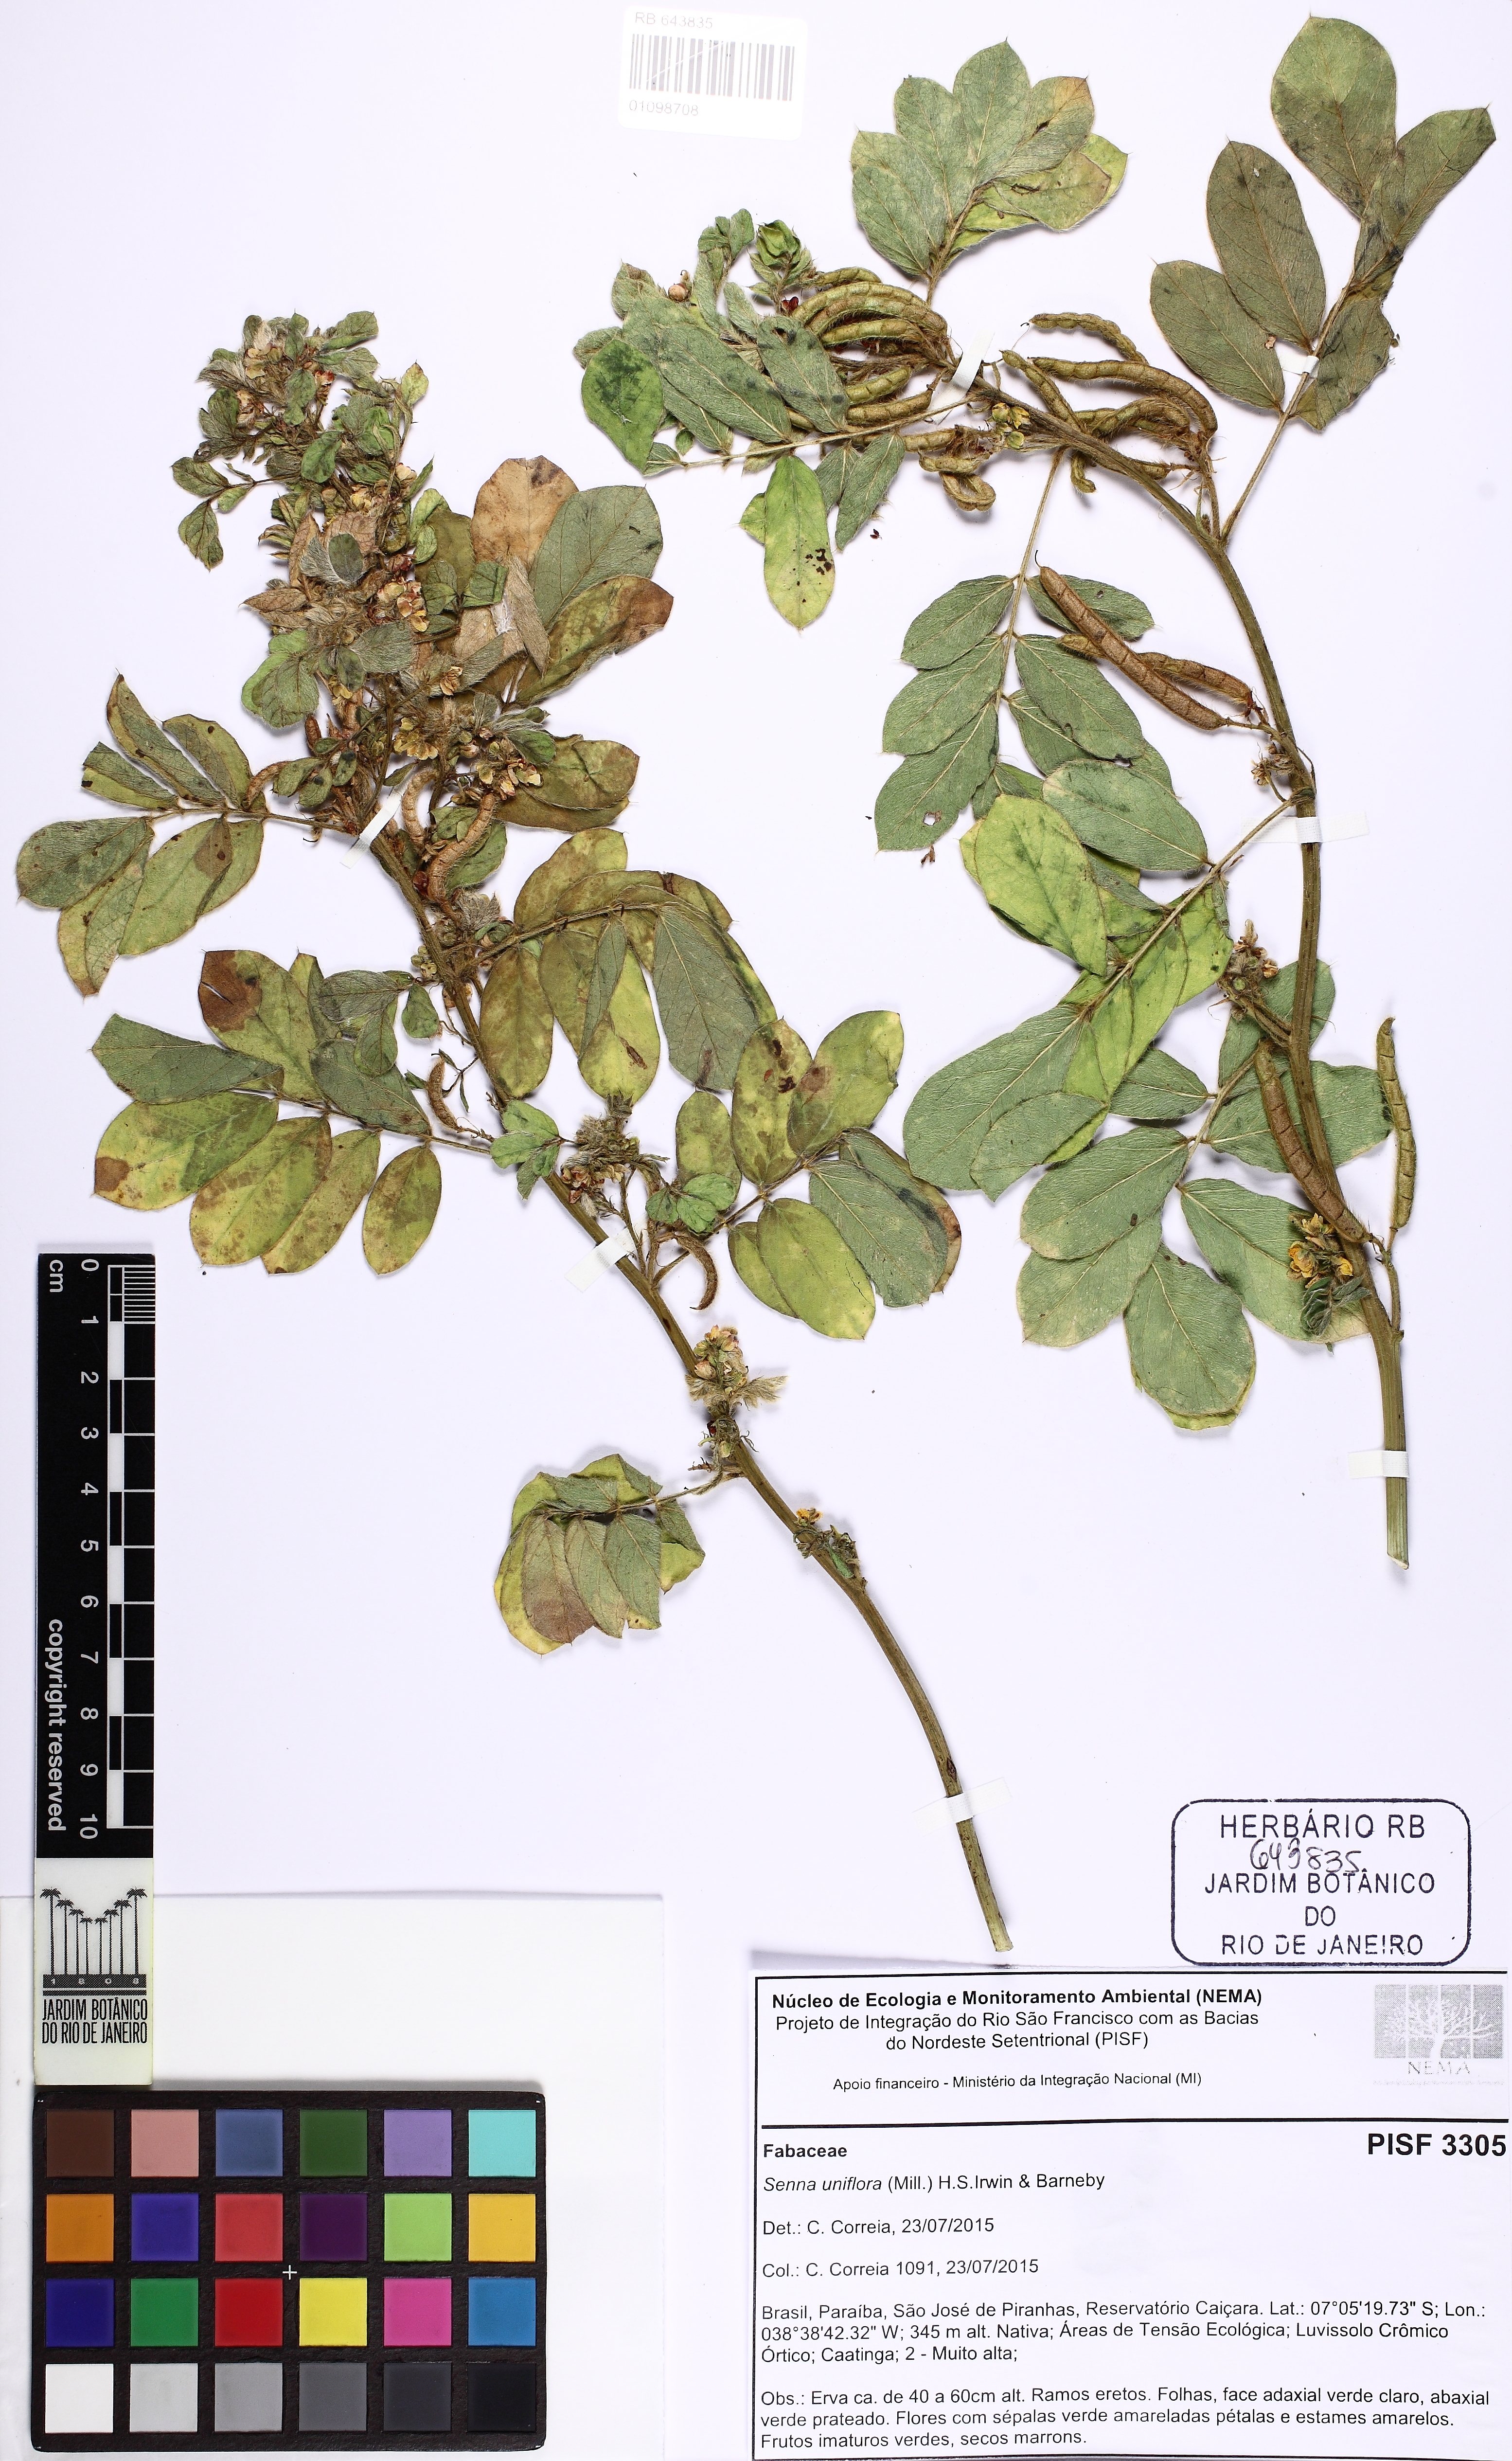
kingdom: Plantae
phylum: Tracheophyta
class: Magnoliopsida
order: Fabales
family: Fabaceae
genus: Senna
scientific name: Senna uniflora
